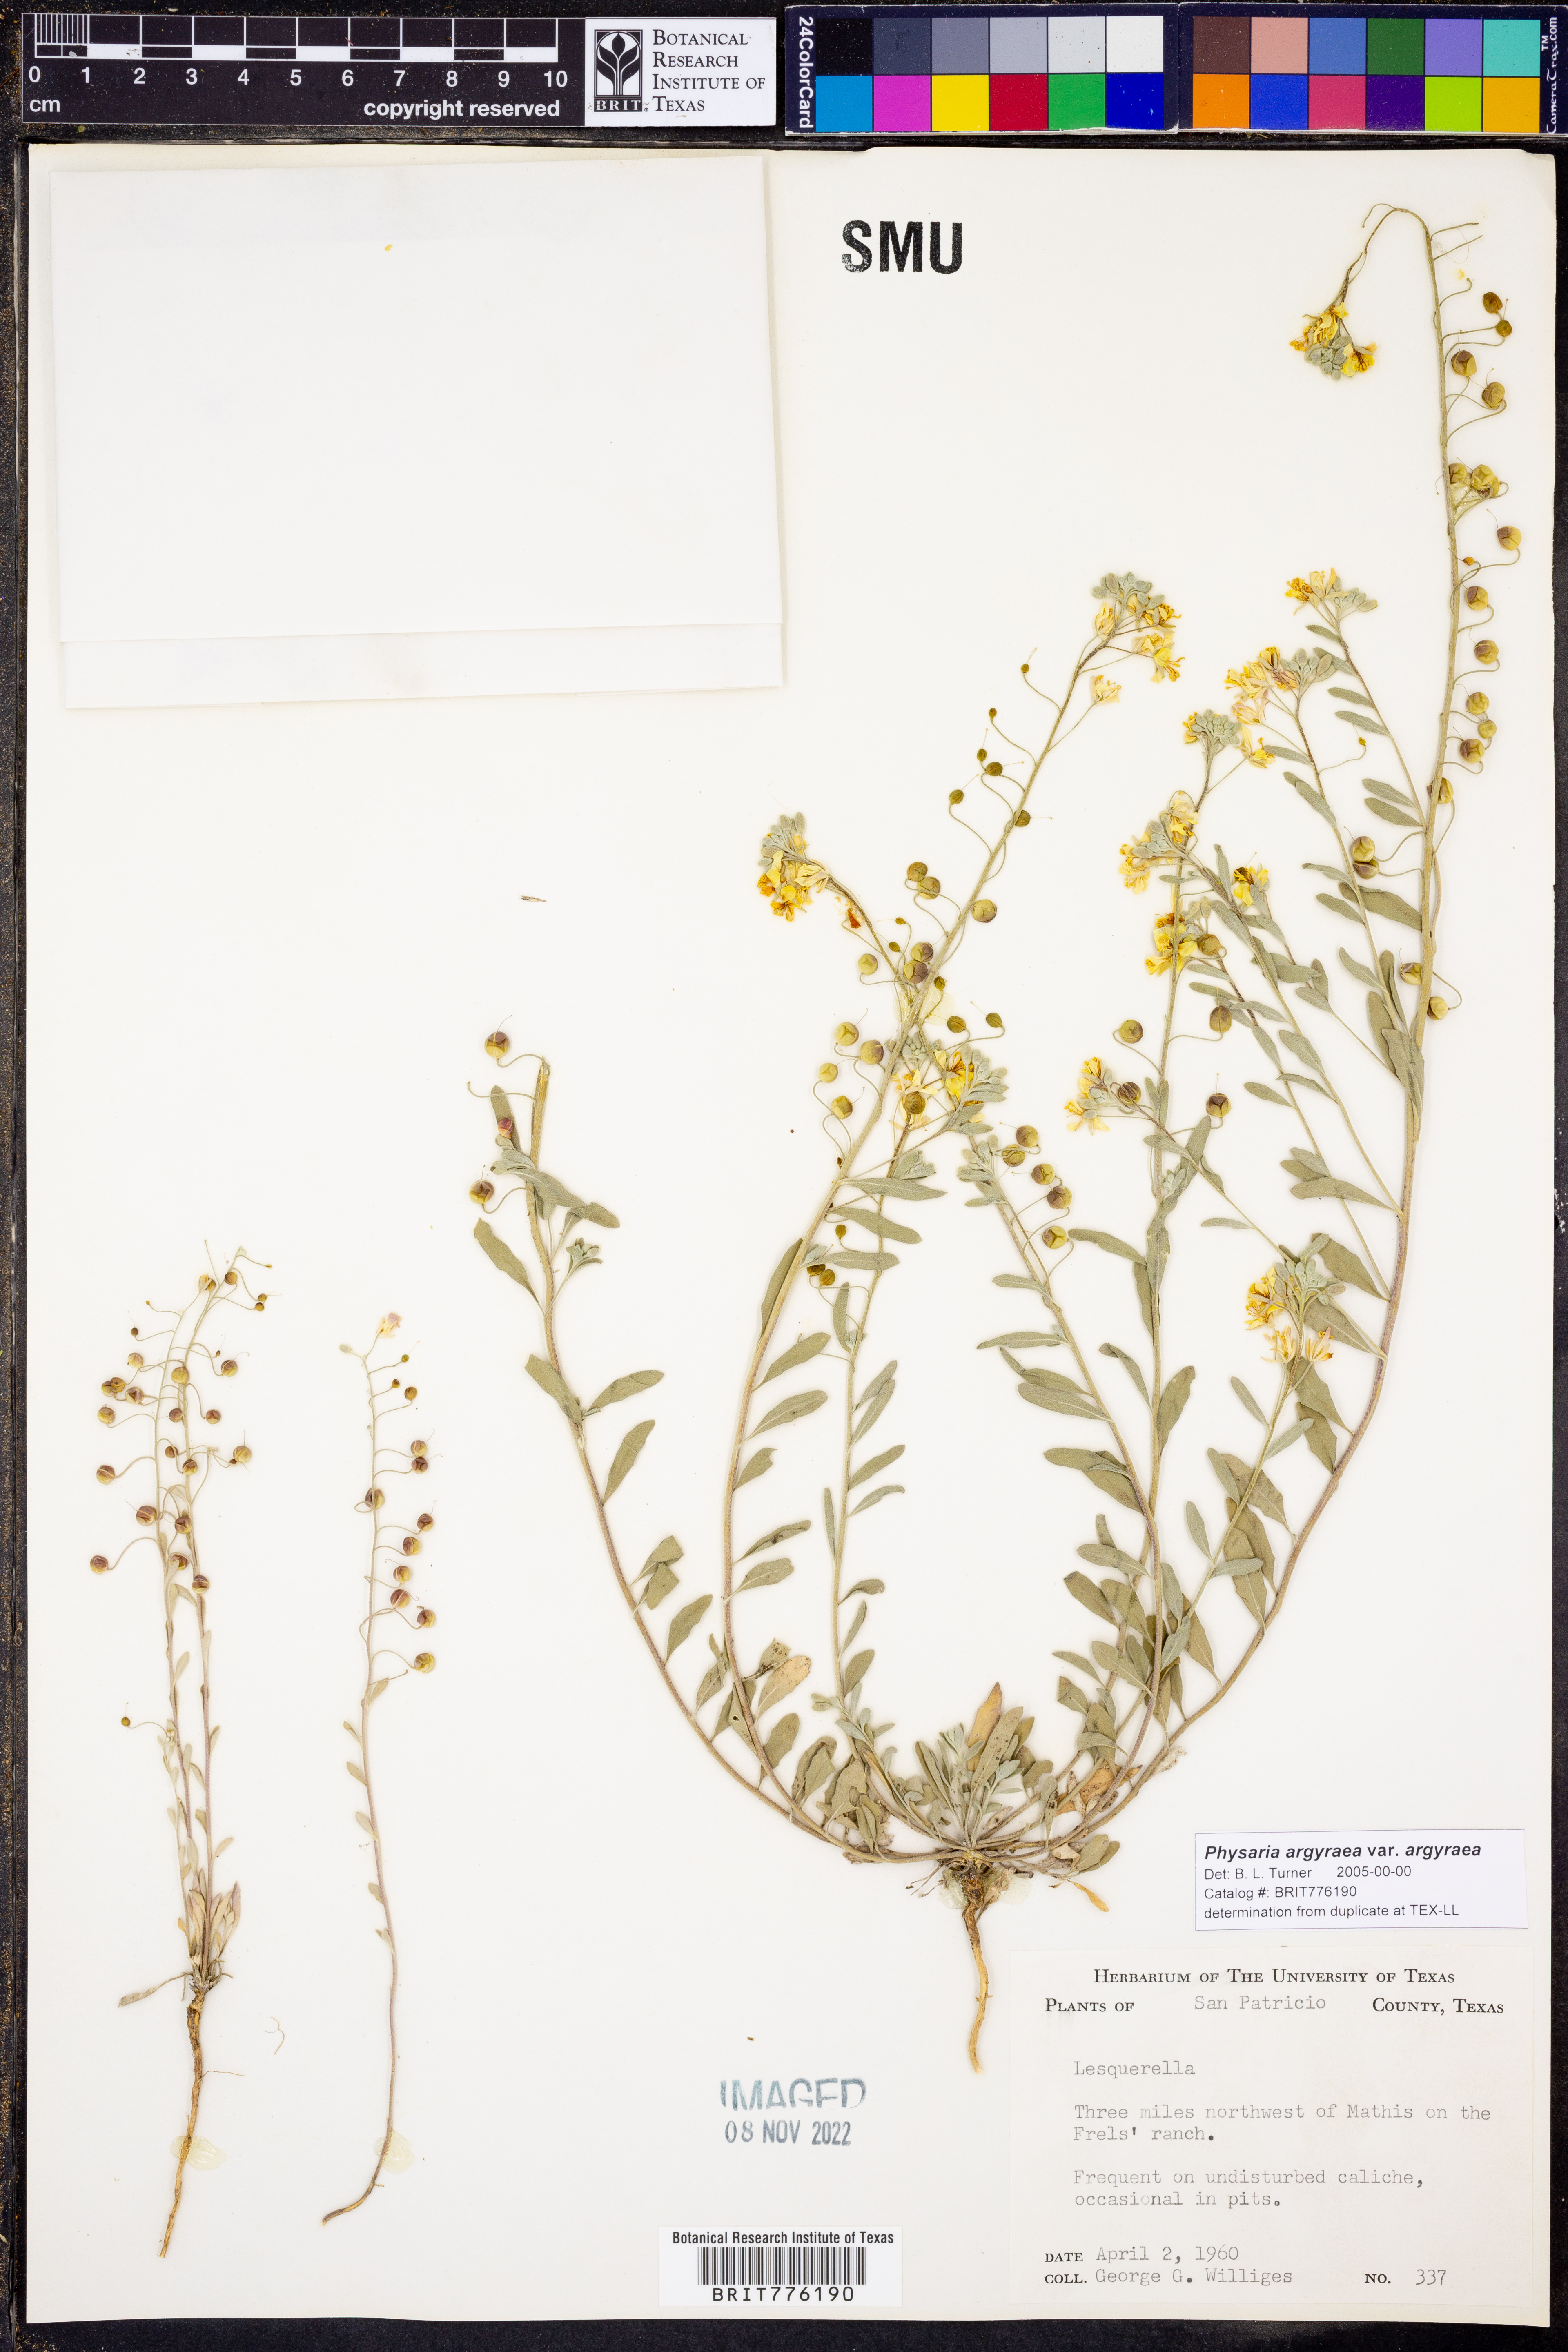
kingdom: Plantae
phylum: Tracheophyta
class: Magnoliopsida
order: Brassicales
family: Brassicaceae
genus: Physaria
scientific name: Physaria argyraea
